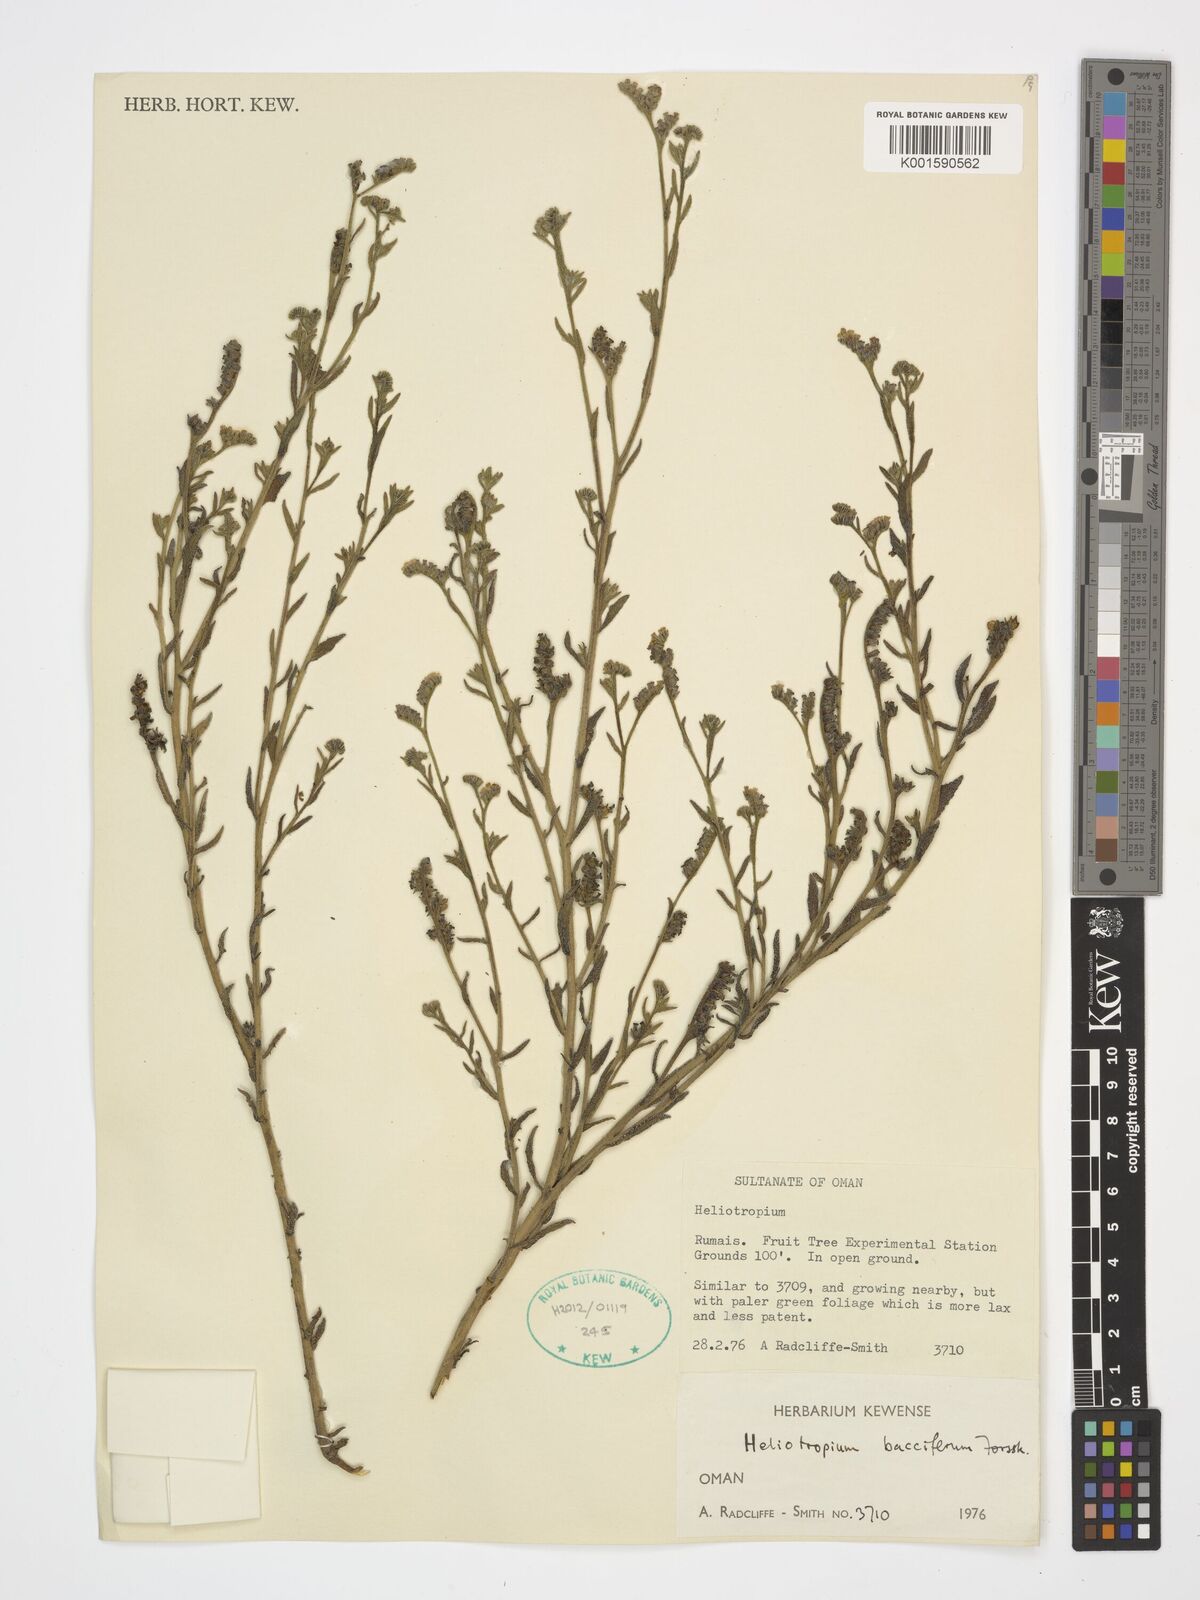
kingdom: Plantae
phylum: Tracheophyta
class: Magnoliopsida
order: Boraginales
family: Heliotropiaceae
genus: Heliotropium
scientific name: Heliotropium bacciferum
